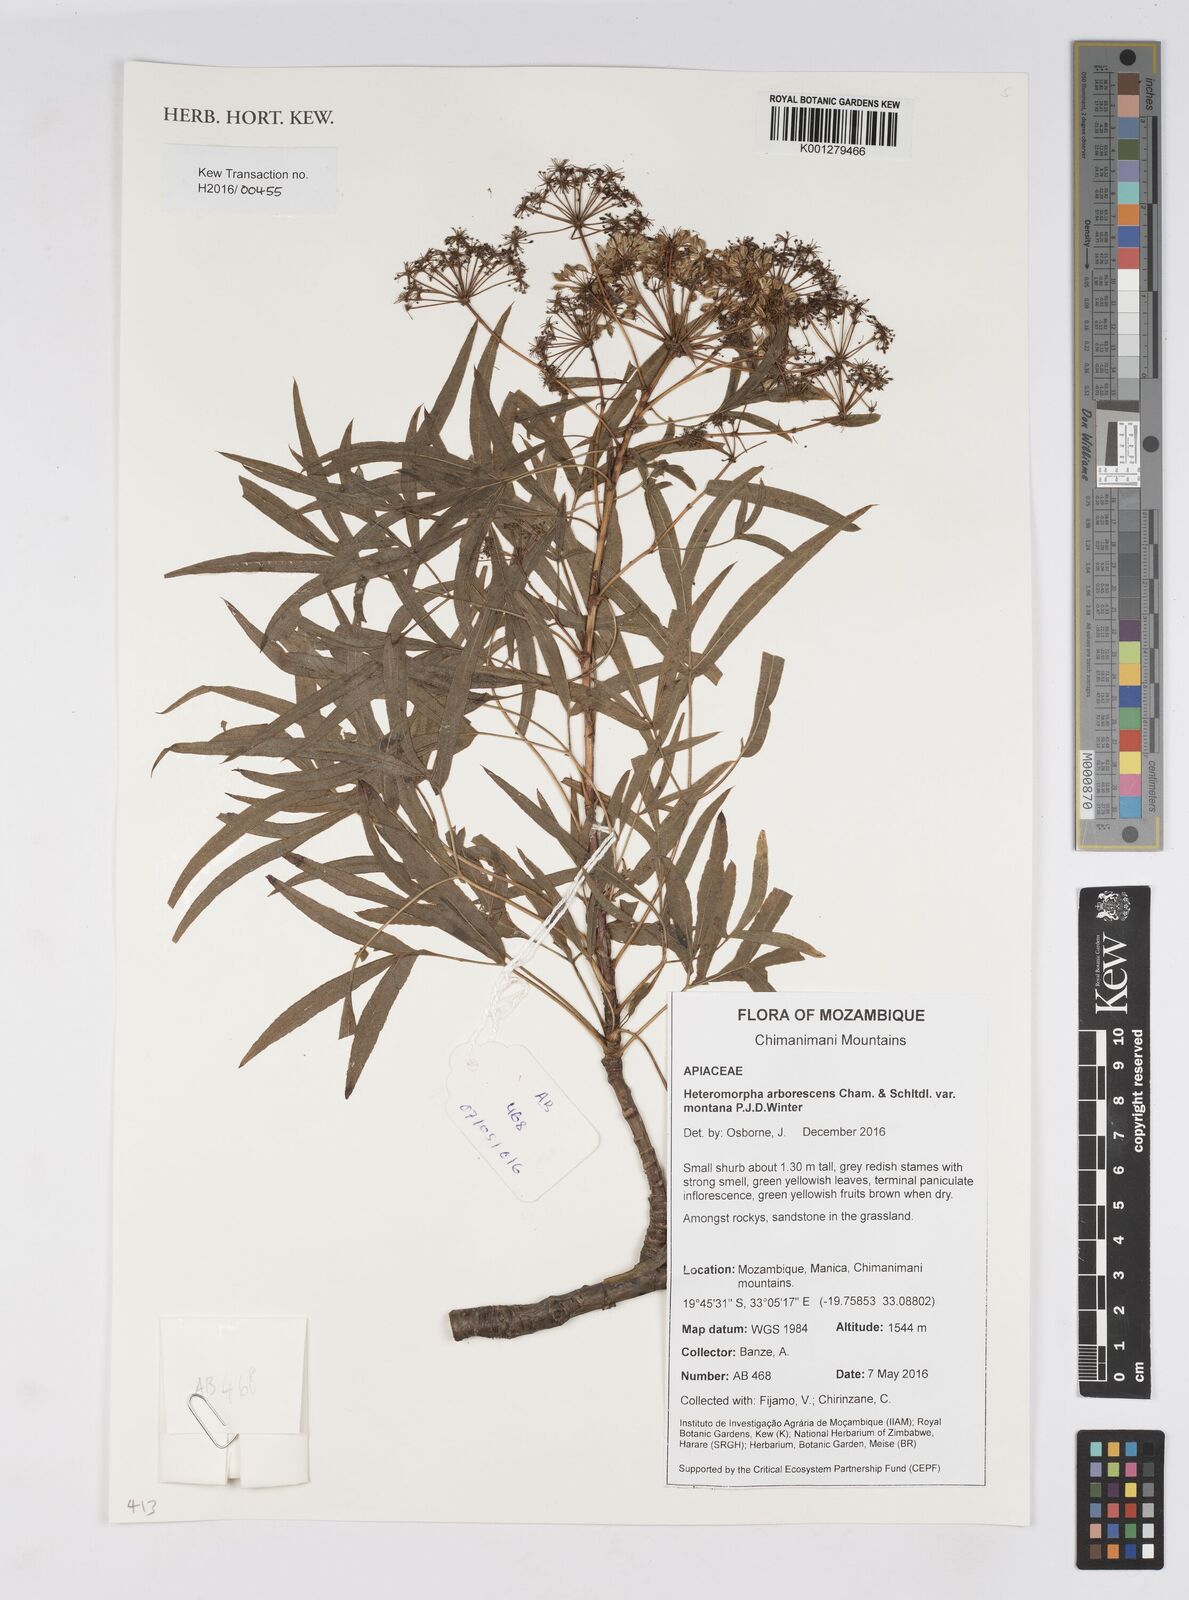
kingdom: Plantae
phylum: Tracheophyta
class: Magnoliopsida
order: Apiales
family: Apiaceae
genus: Heteromorpha
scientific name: Heteromorpha montana
